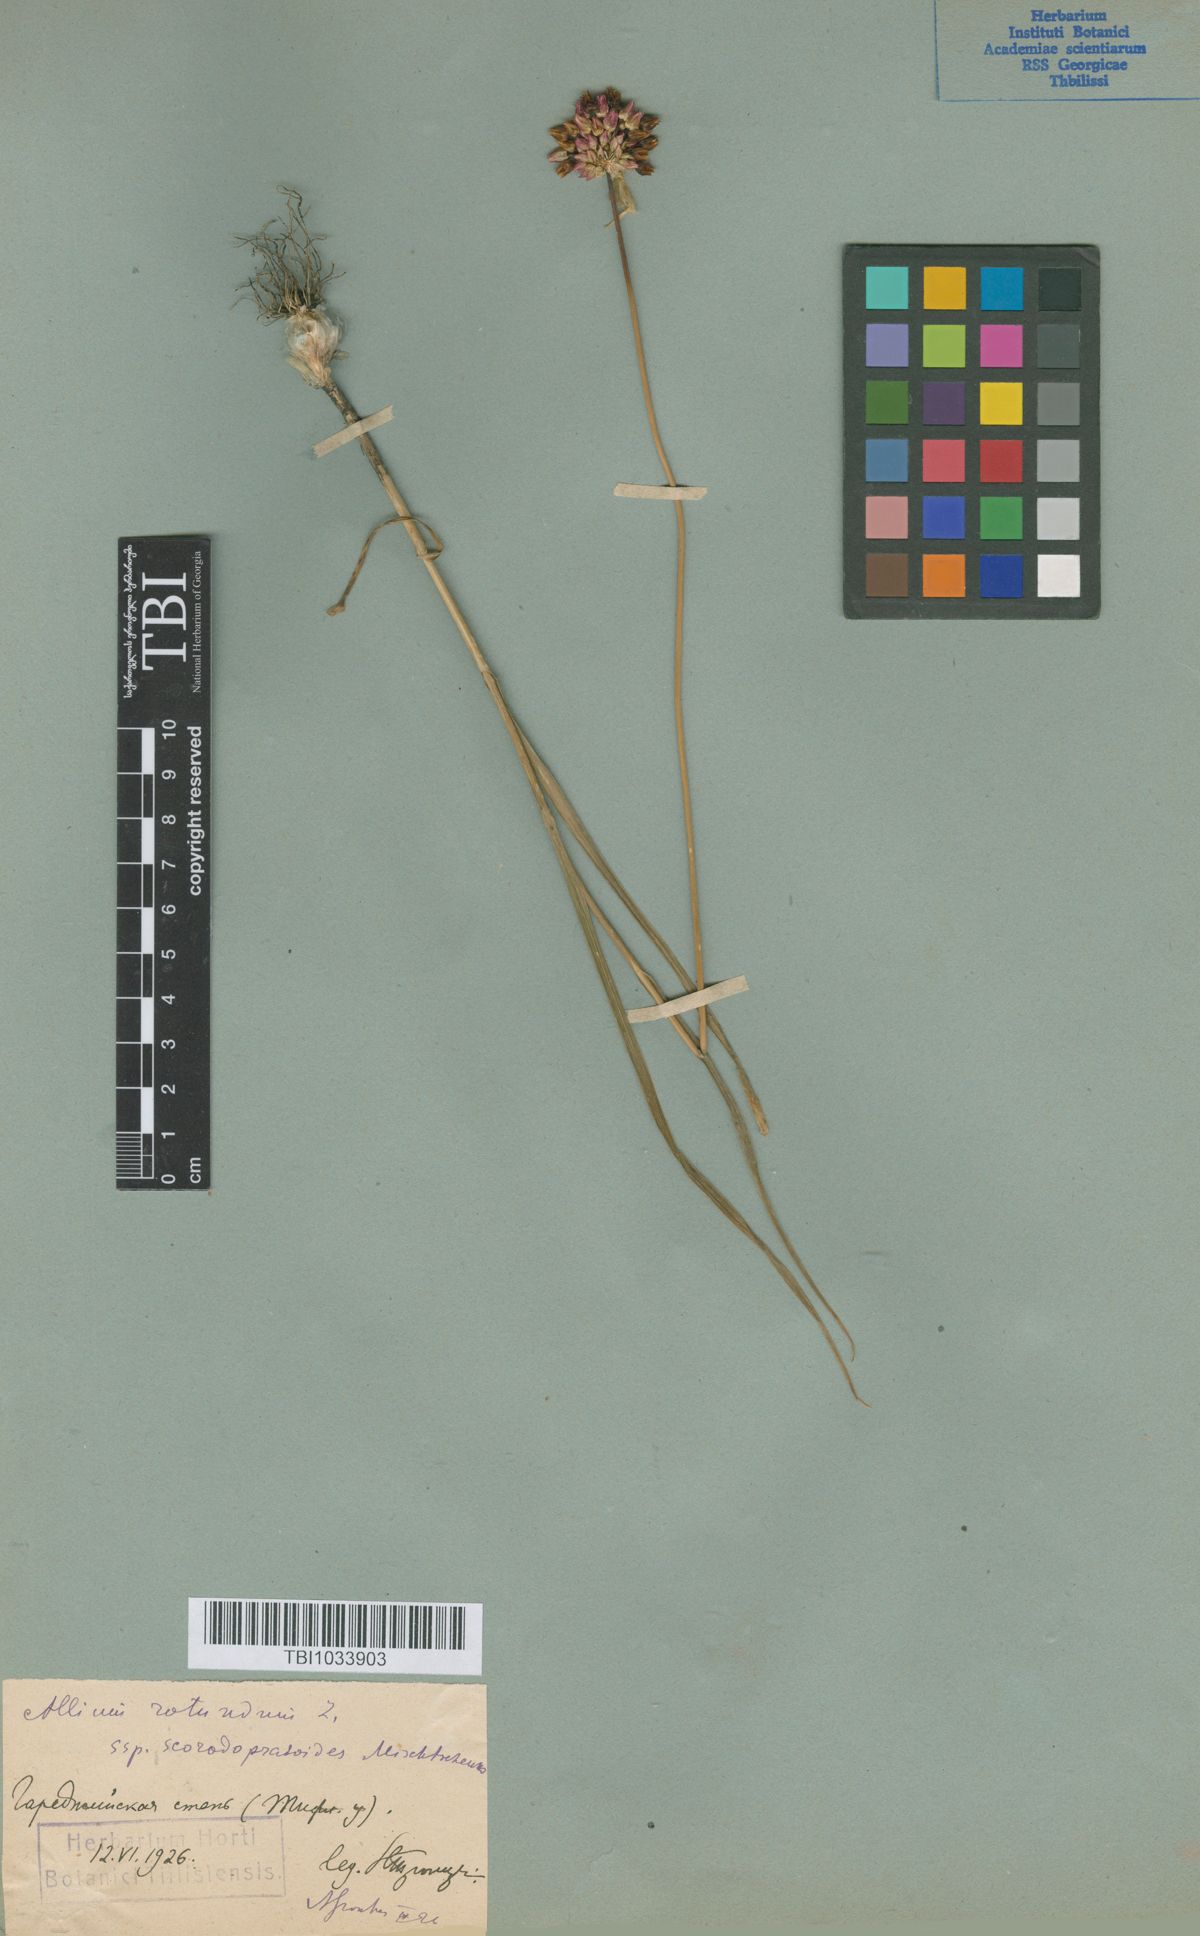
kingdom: Plantae
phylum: Tracheophyta
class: Liliopsida
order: Asparagales
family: Amaryllidaceae
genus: Allium
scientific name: Allium rotundum
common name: Sand leek
